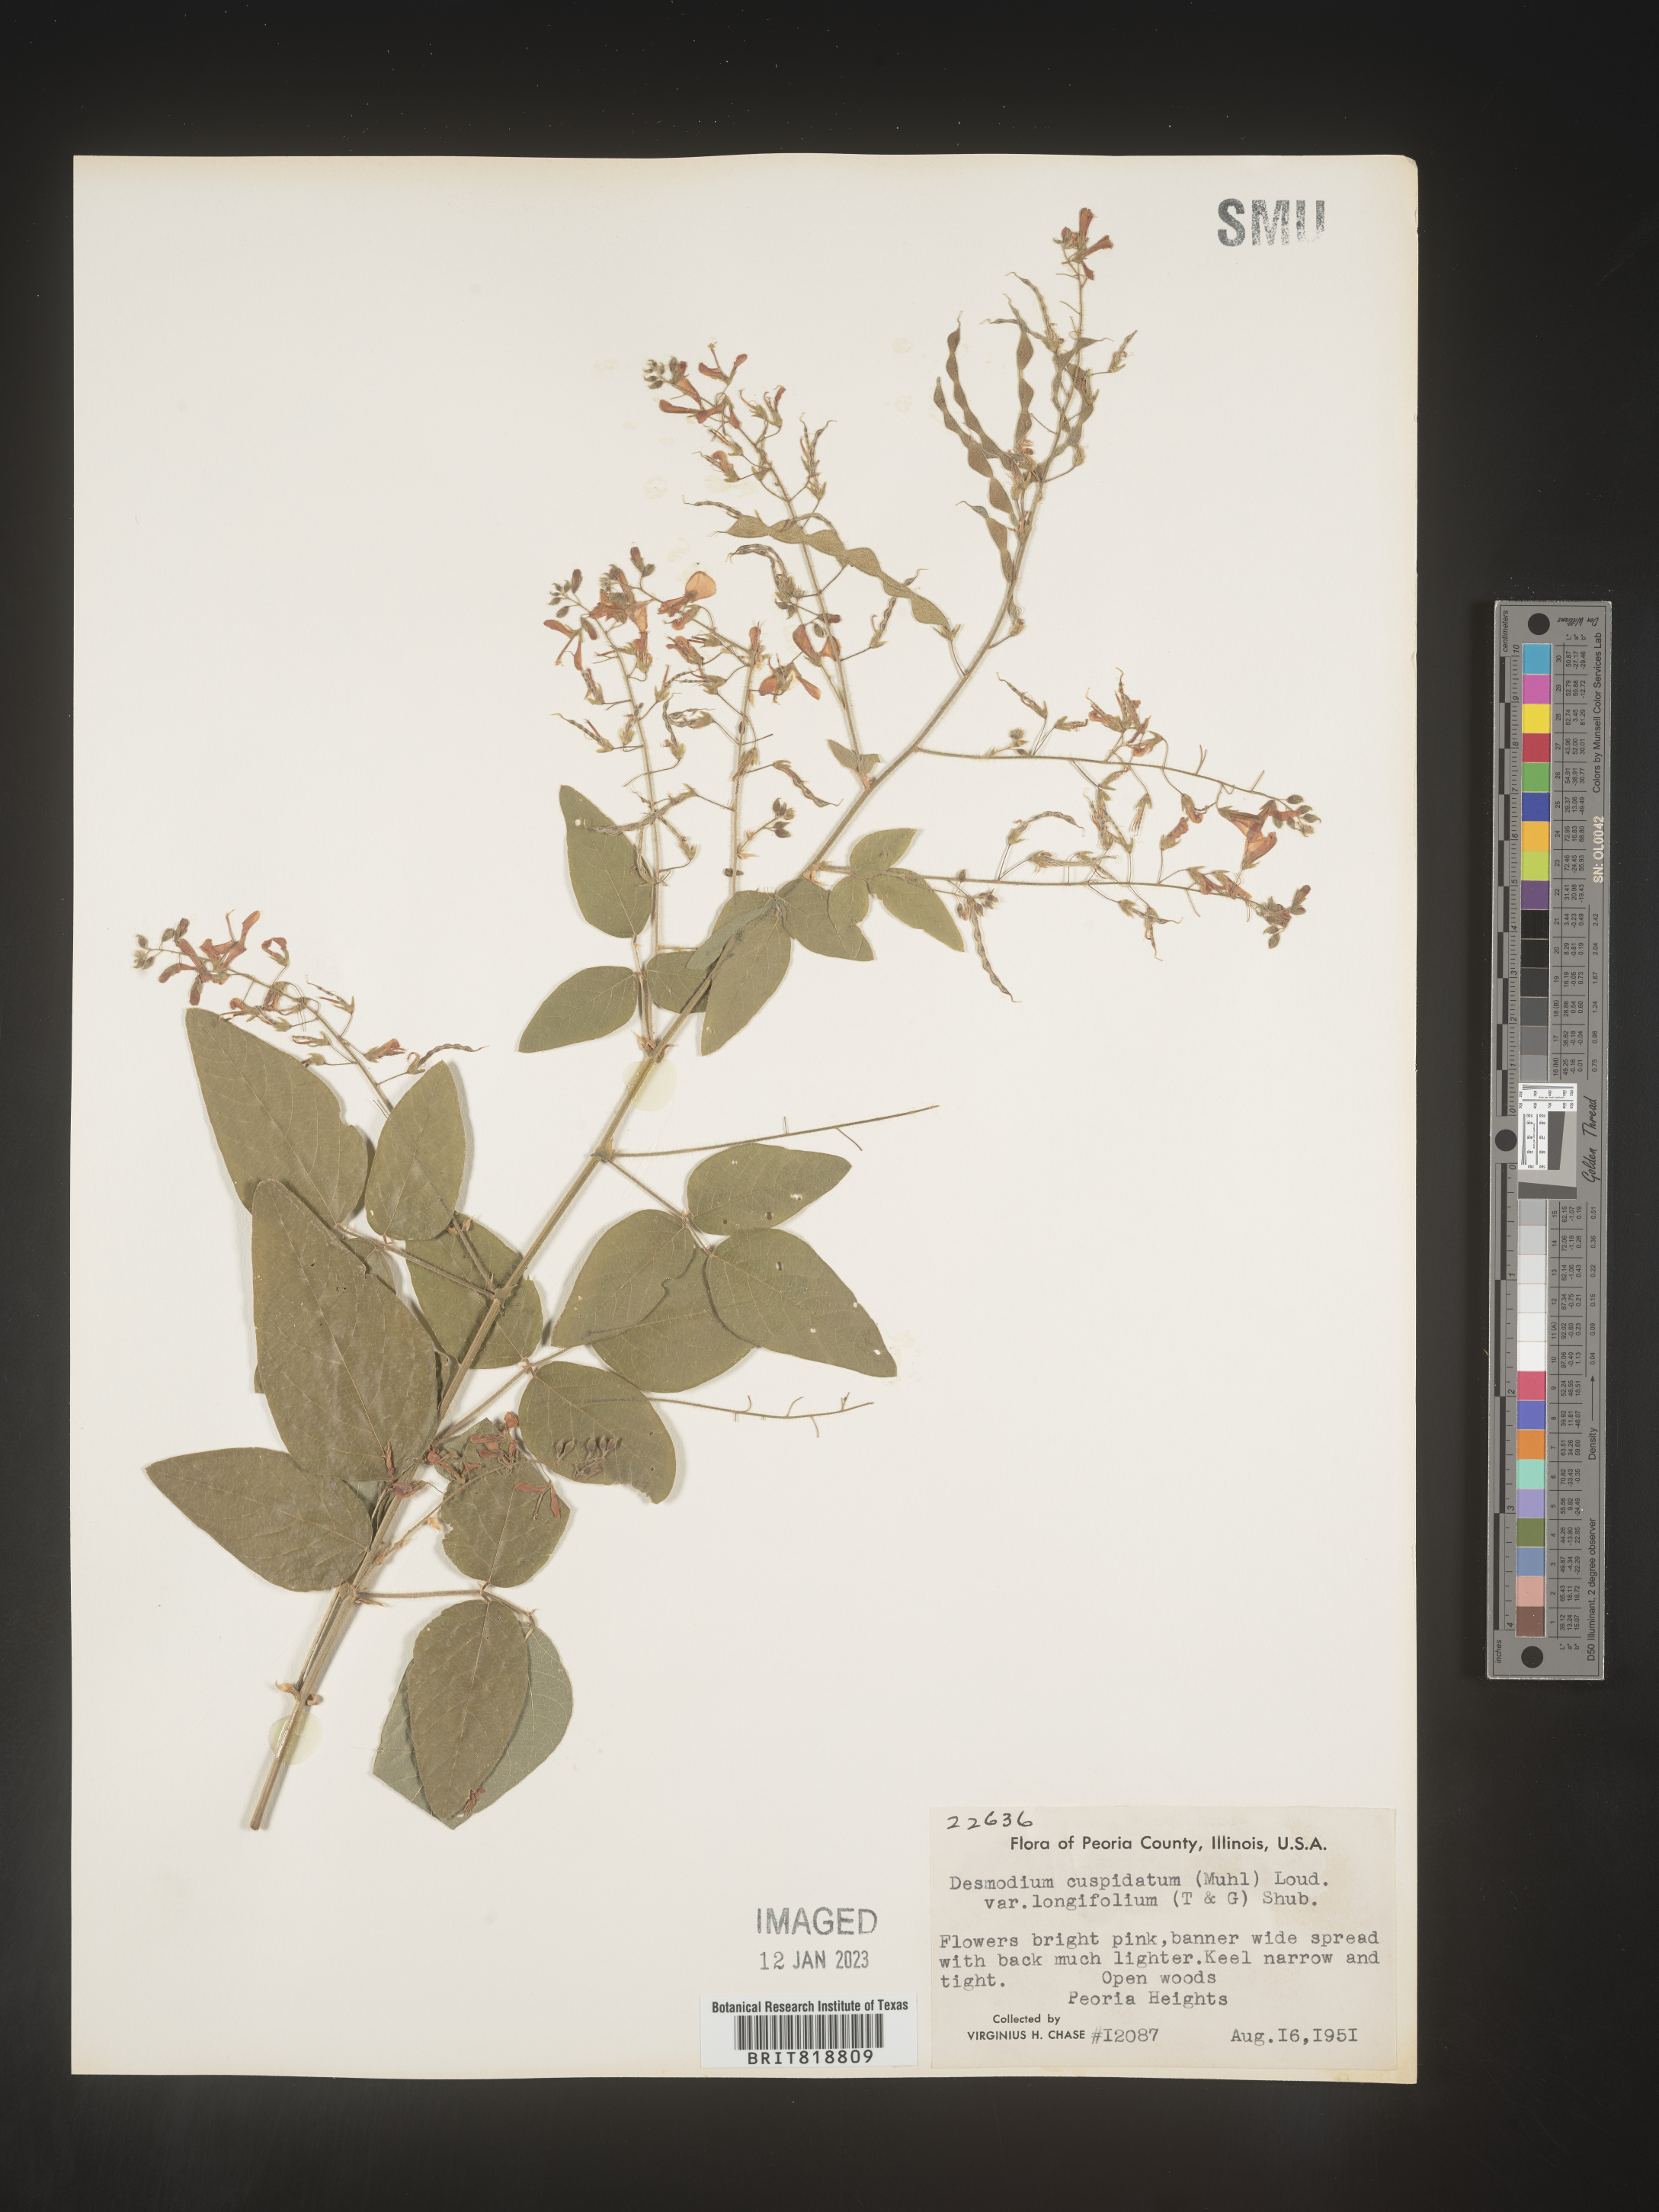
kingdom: Plantae
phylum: Tracheophyta
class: Magnoliopsida
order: Fabales
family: Fabaceae
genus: Desmodium
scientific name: Desmodium cuspidatum
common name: Big tick trefoil
